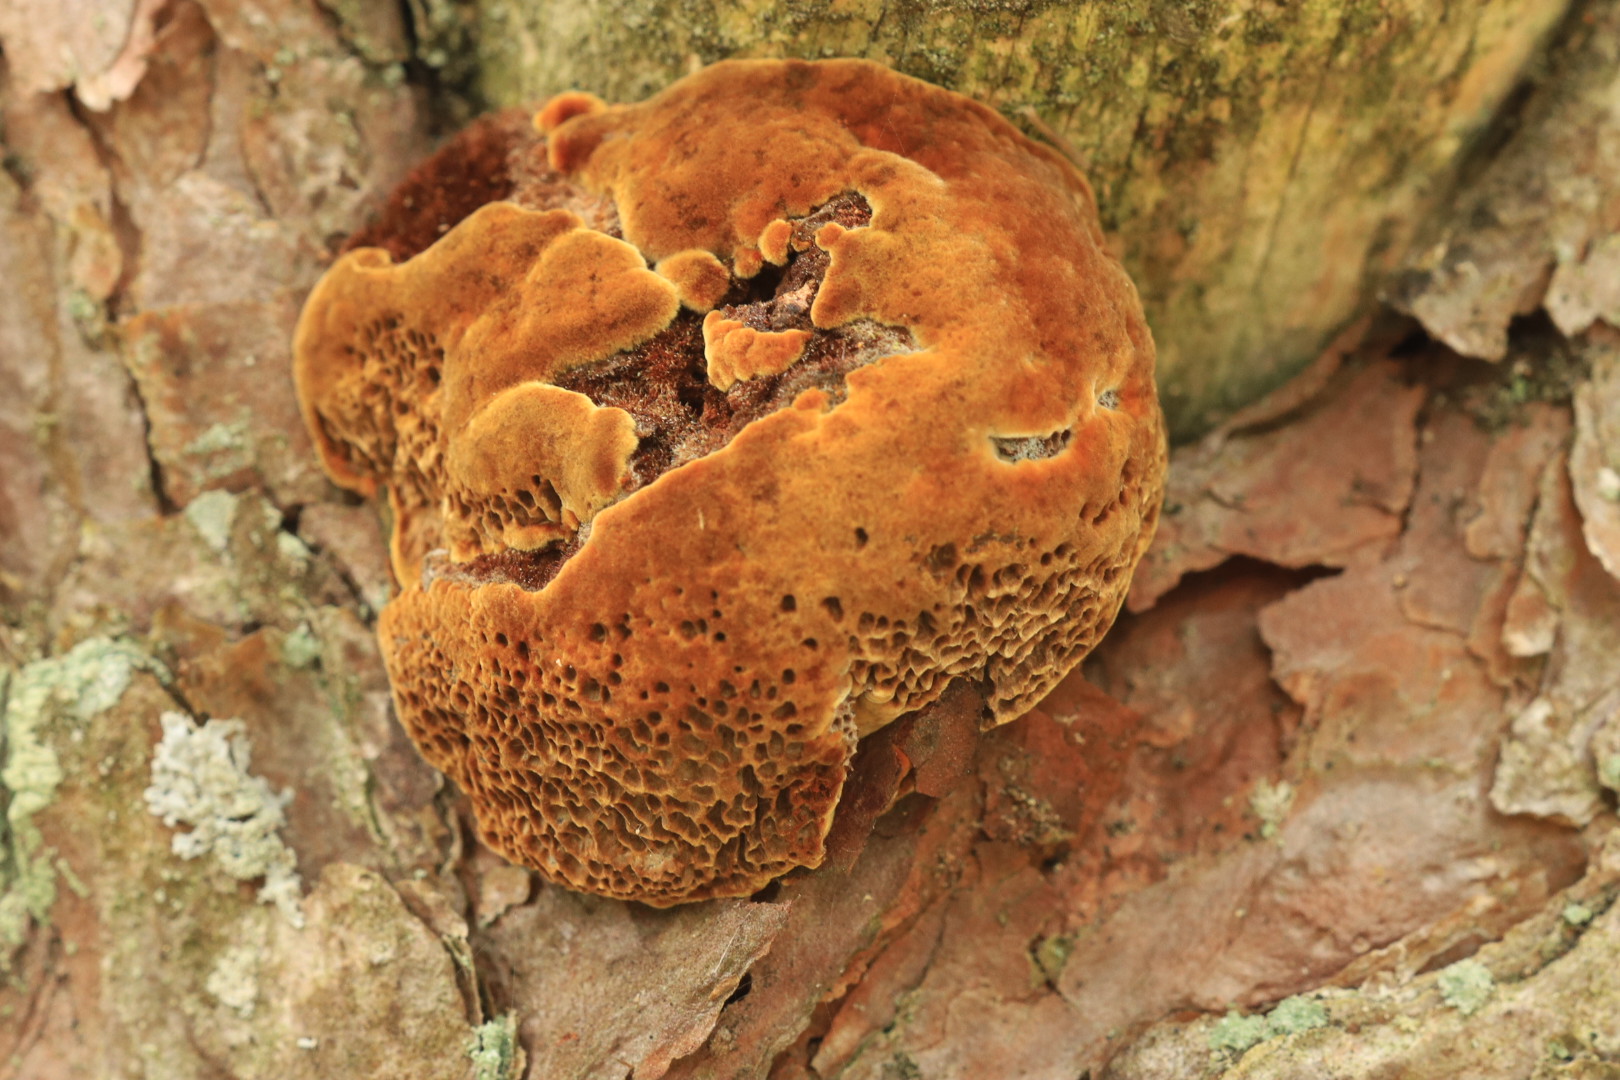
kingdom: Fungi
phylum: Basidiomycota
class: Agaricomycetes
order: Hymenochaetales
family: Hymenochaetaceae
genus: Porodaedalea
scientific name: Porodaedalea pini
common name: fyrre-ildporesvamp
